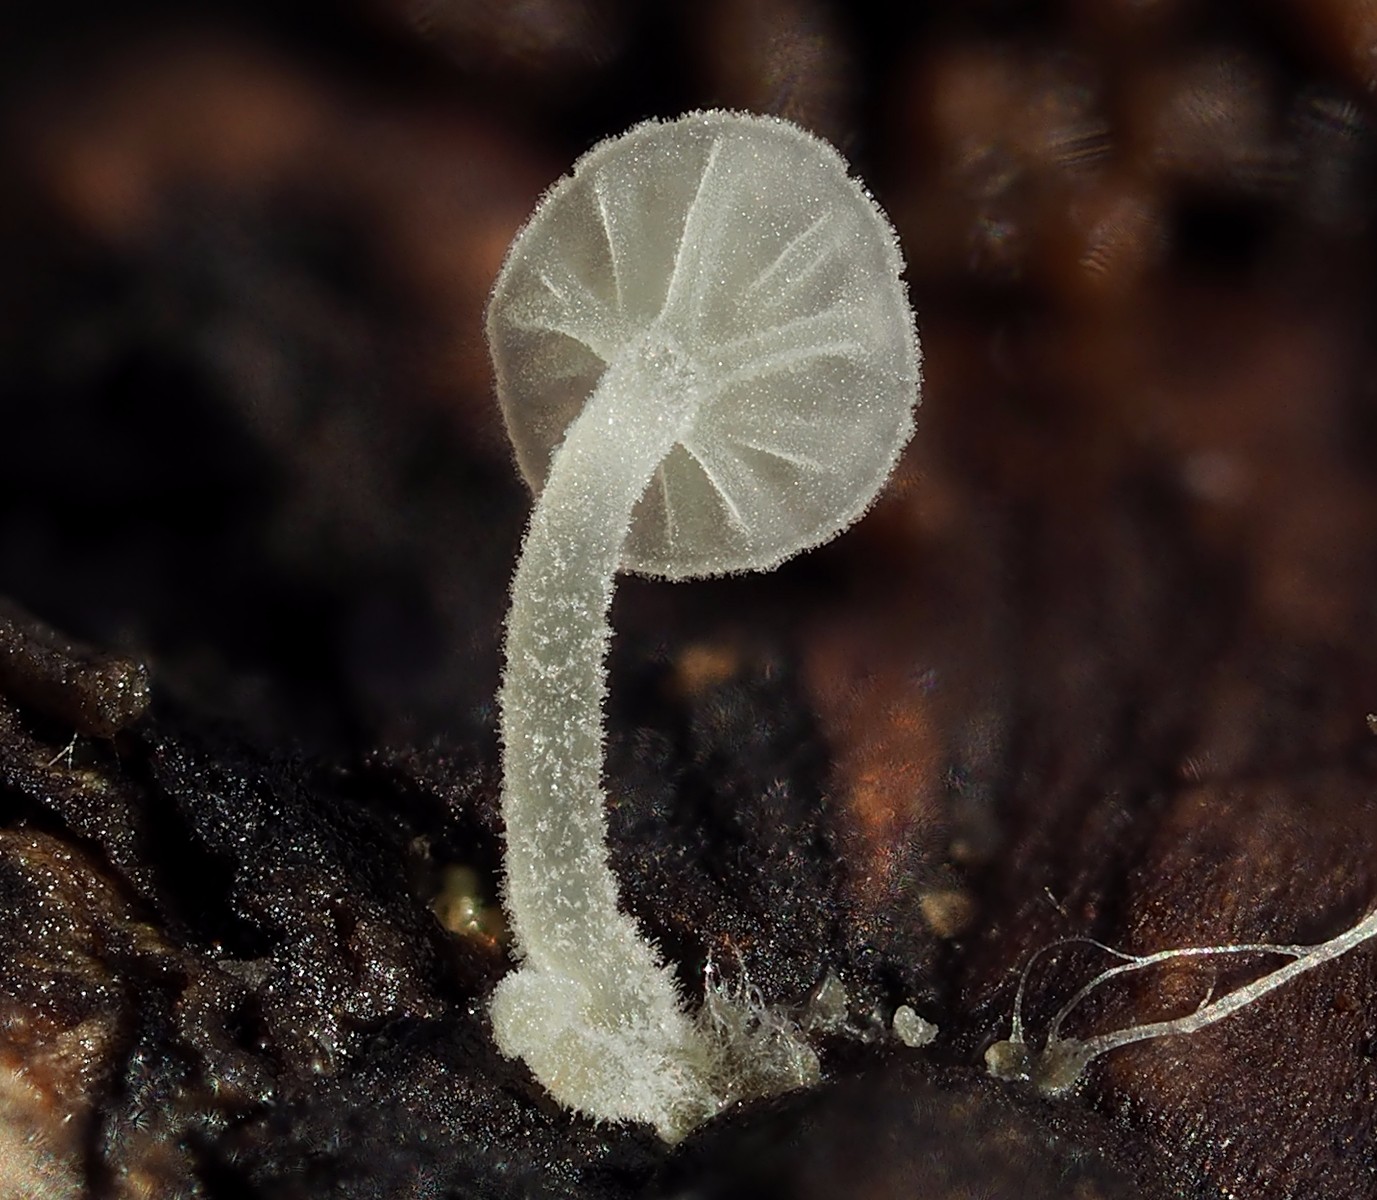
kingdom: Fungi
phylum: Basidiomycota
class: Agaricomycetes
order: Agaricales
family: Porotheleaceae
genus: Phloeomana
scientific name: Phloeomana speirea
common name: kvist-huesvamp
